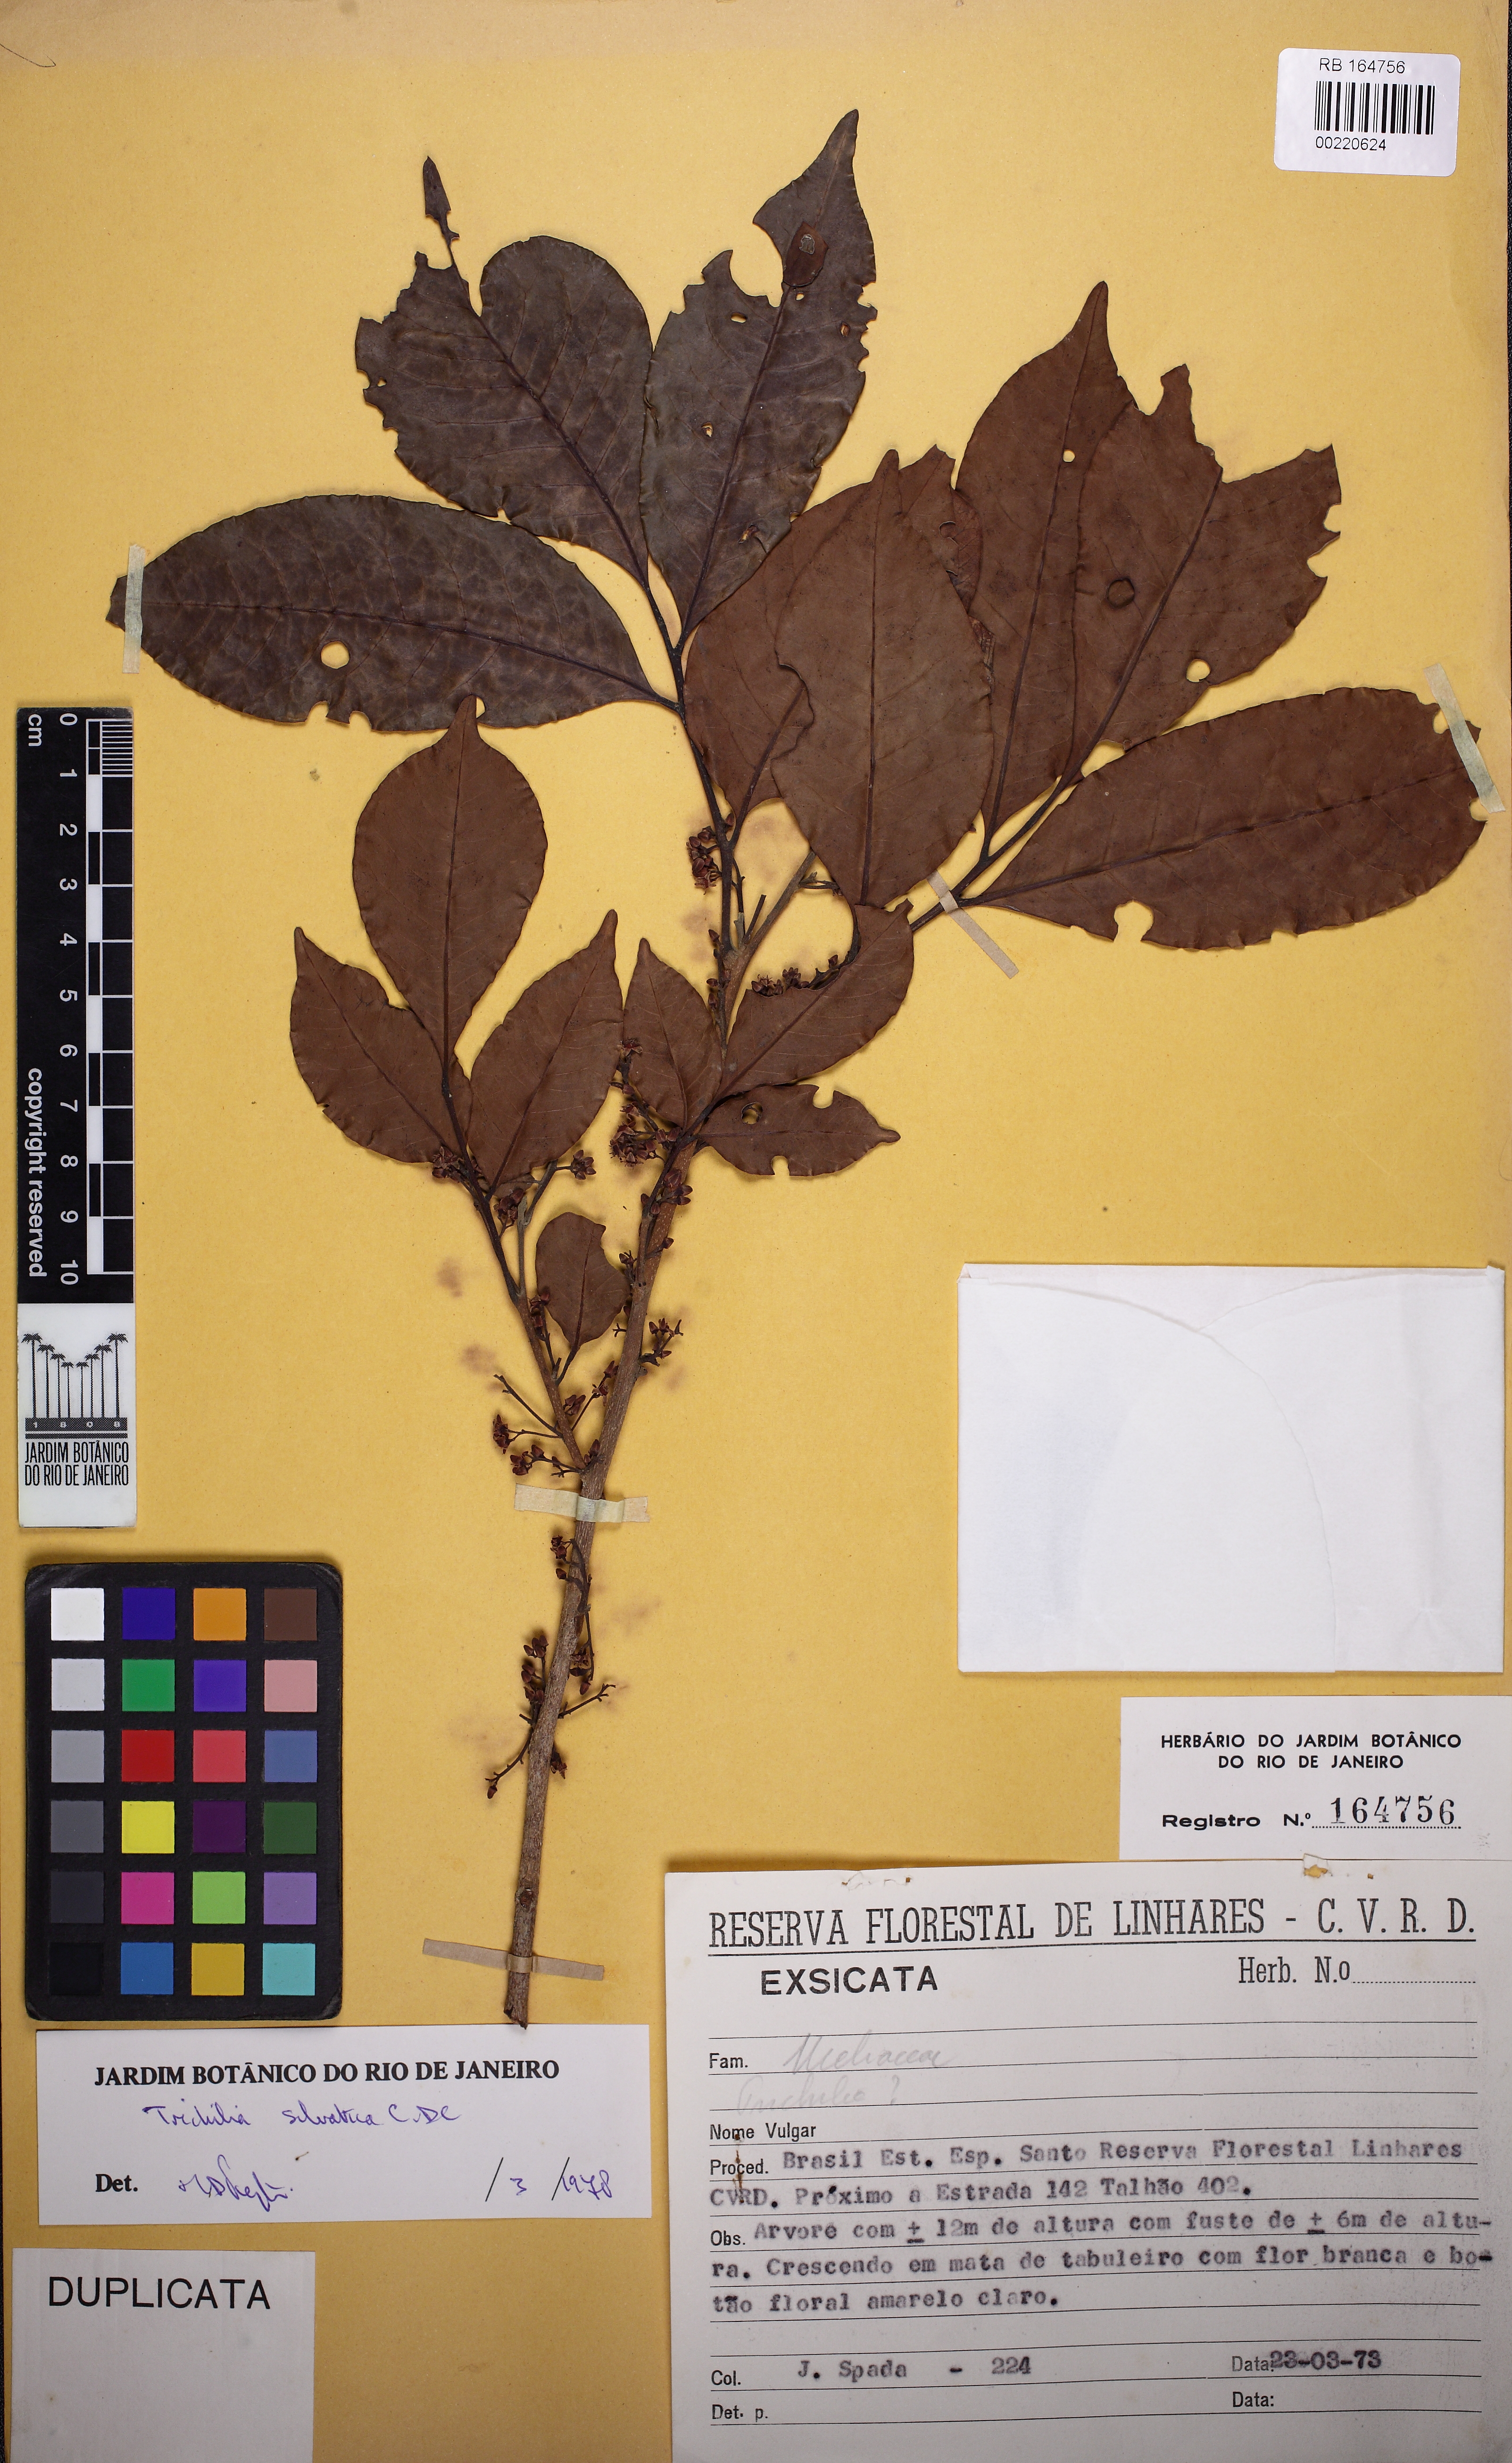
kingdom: Plantae
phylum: Tracheophyta
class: Magnoliopsida
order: Sapindales
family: Meliaceae
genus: Trichilia
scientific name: Trichilia silvatica
